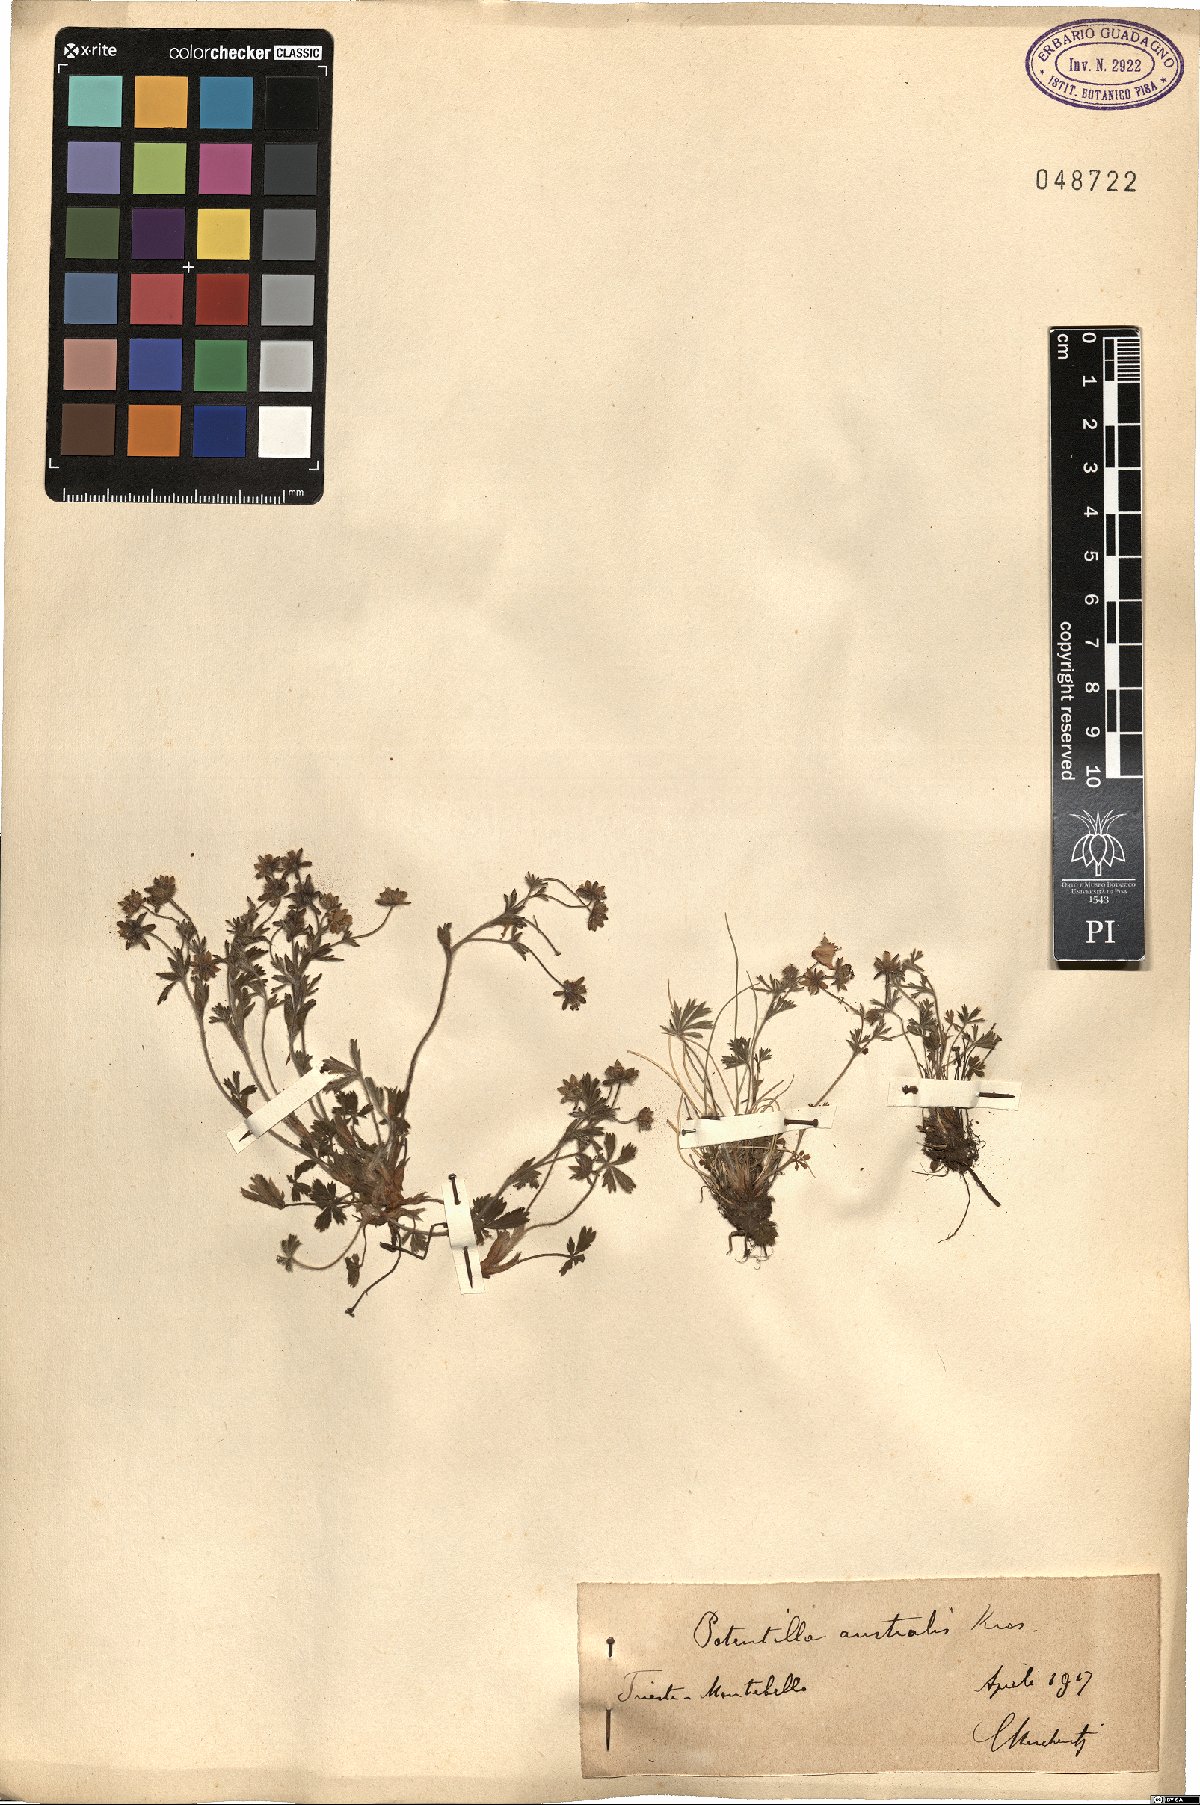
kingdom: Plantae
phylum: Tracheophyta
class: Magnoliopsida
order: Rosales
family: Rosaceae
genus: Potentilla
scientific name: Potentilla heptaphylla
